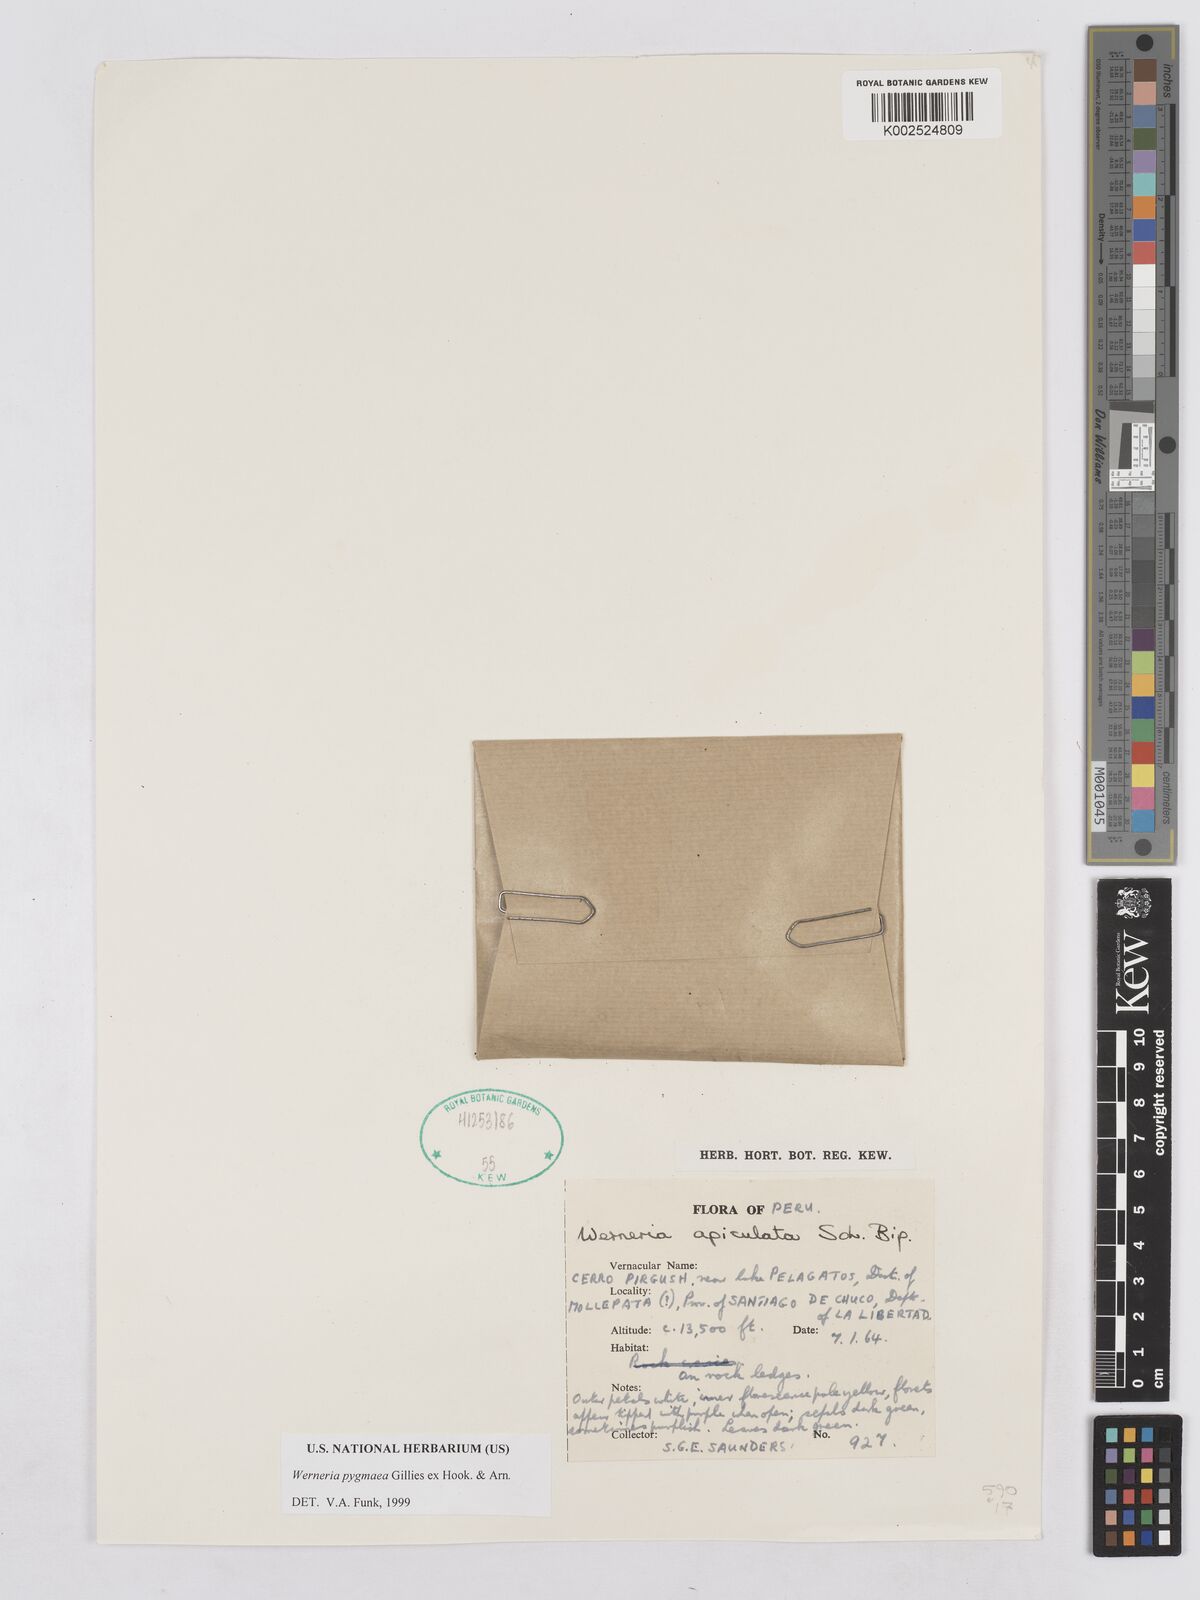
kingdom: Plantae
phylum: Tracheophyta
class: Magnoliopsida
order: Asterales
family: Asteraceae
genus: Rockhausenia
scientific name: Rockhausenia pygmaea
